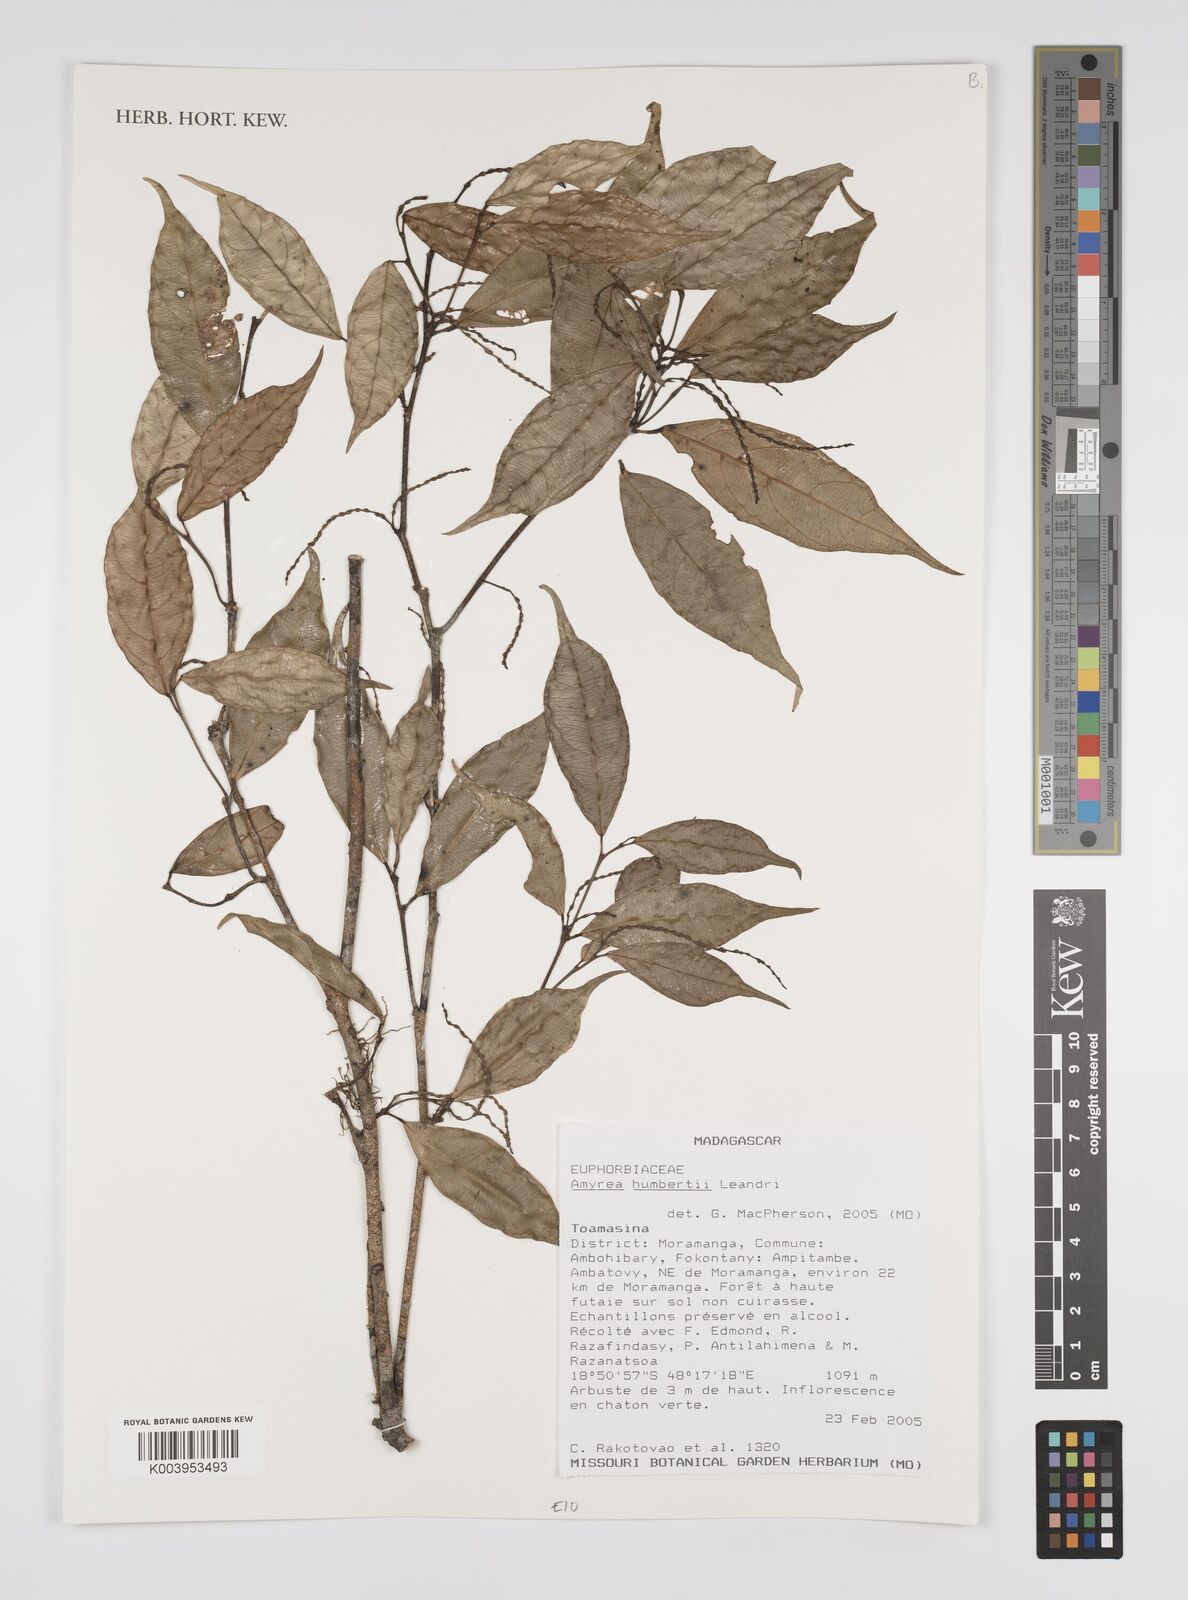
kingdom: Plantae
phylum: Tracheophyta
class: Magnoliopsida
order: Malpighiales
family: Euphorbiaceae
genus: Amyrea
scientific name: Amyrea humbertii
